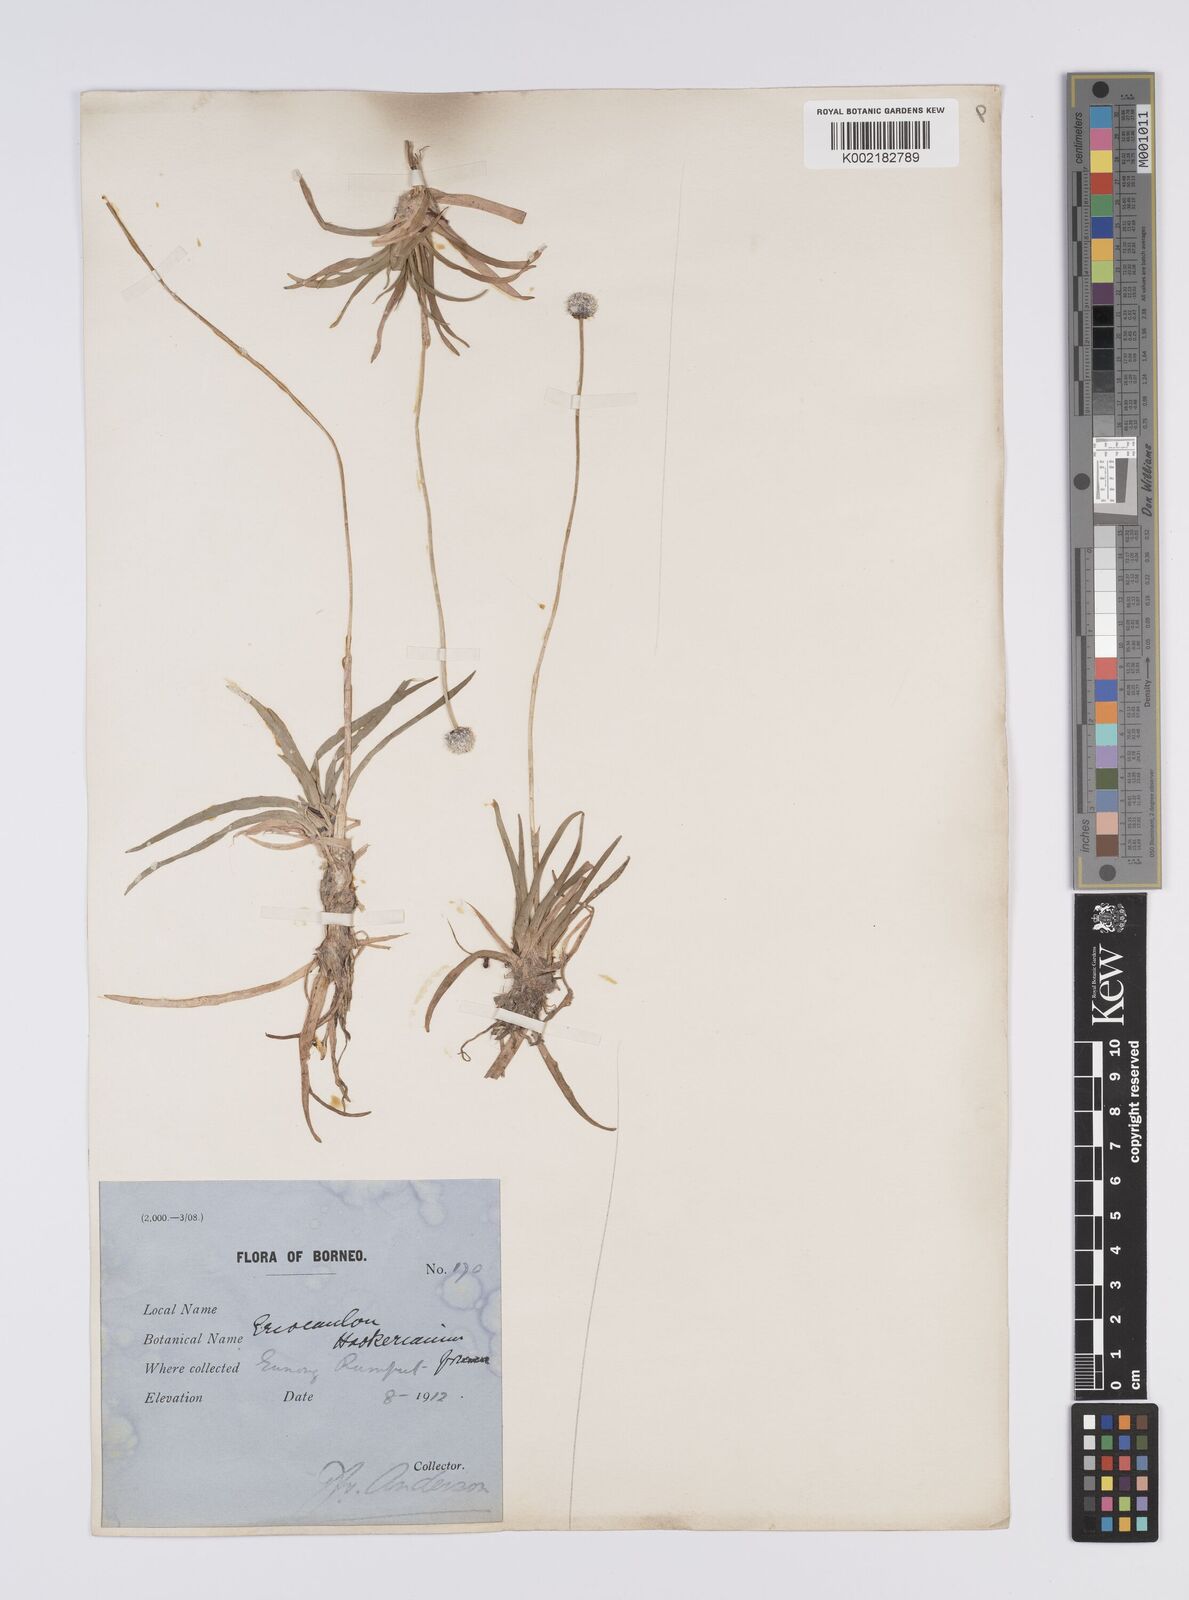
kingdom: Plantae
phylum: Tracheophyta
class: Liliopsida
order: Poales
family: Eriocaulaceae
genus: Eriocaulon
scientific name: Eriocaulon hookerianum
